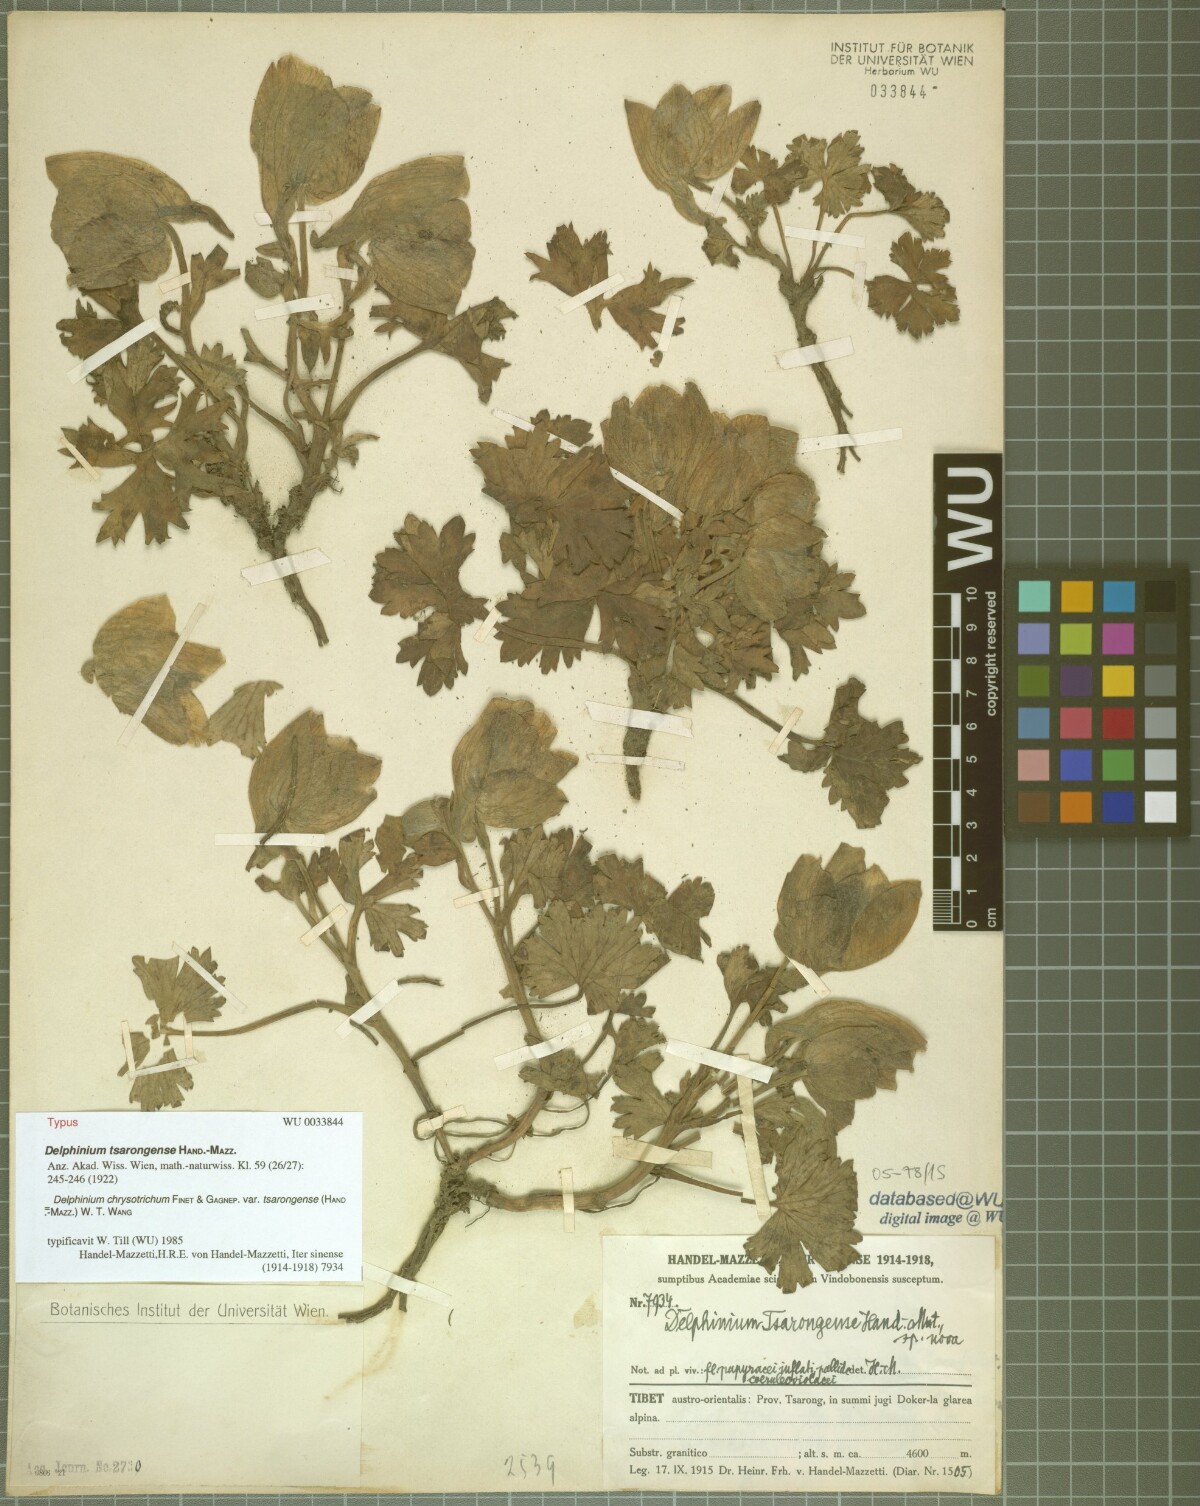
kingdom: Plantae
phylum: Tracheophyta
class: Magnoliopsida
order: Ranunculales
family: Ranunculaceae
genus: Delphinium
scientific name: Delphinium chrysotrichum
